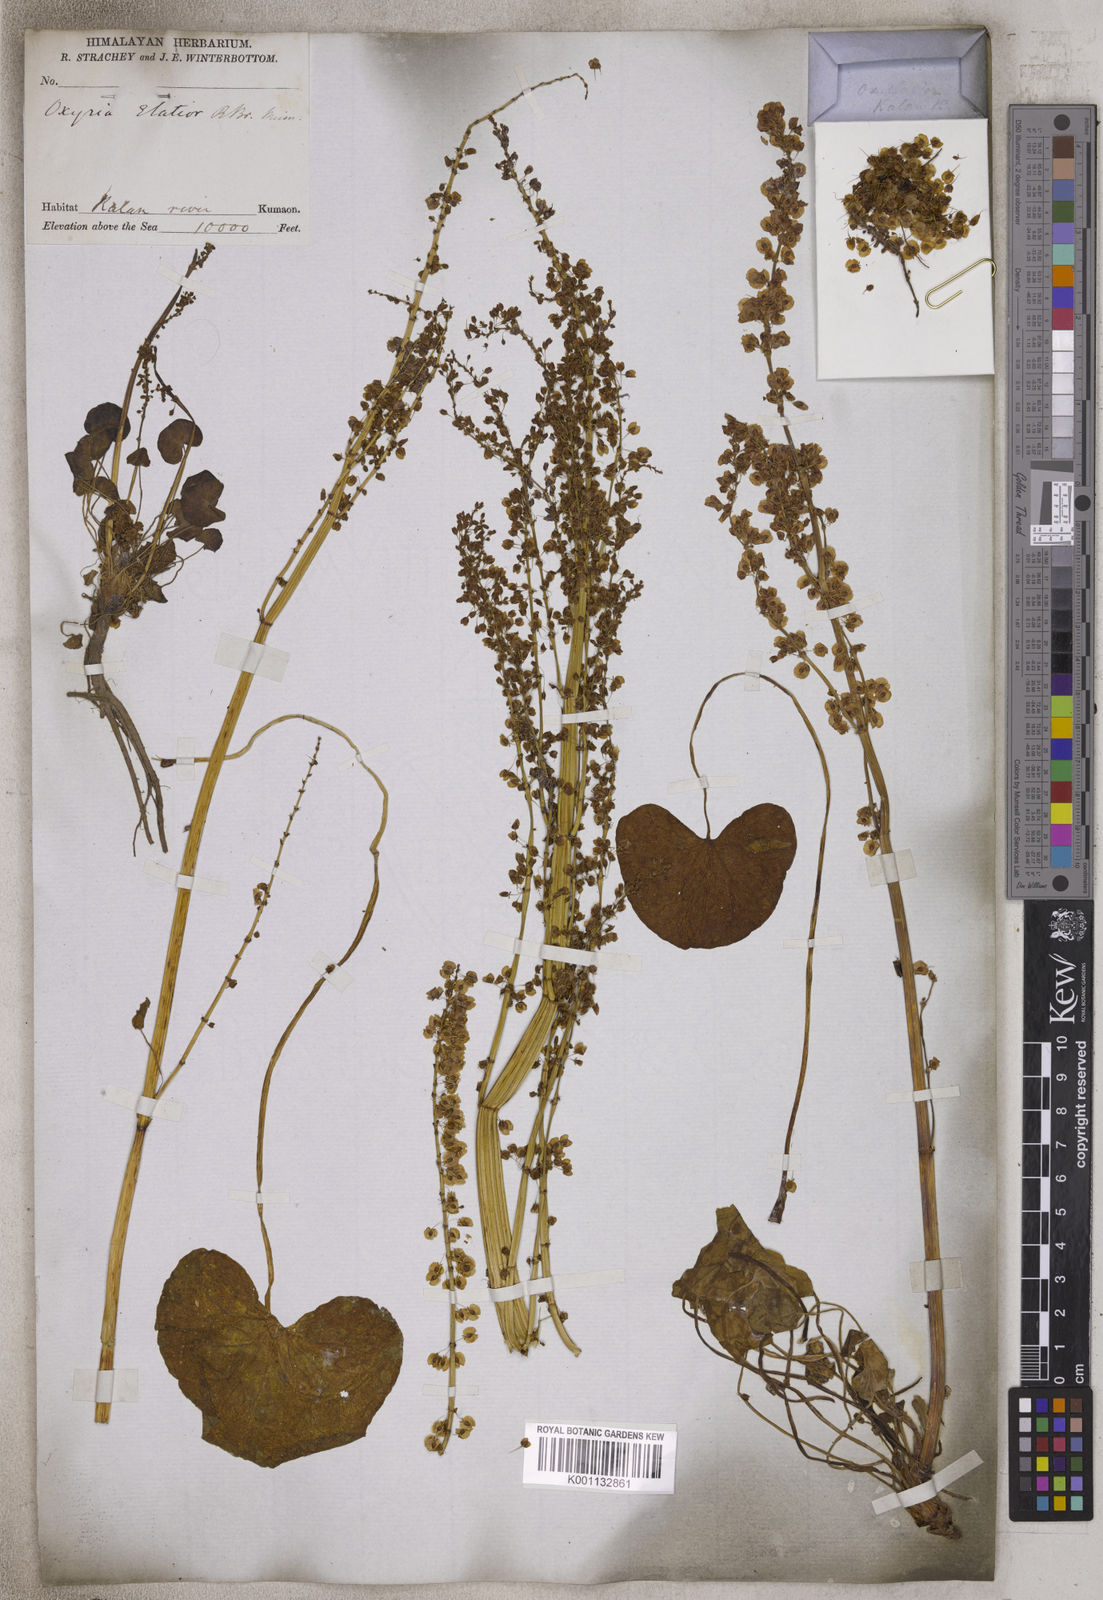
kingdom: Plantae
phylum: Tracheophyta
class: Magnoliopsida
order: Caryophyllales
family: Polygonaceae
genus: Rumex
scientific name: Rumex
